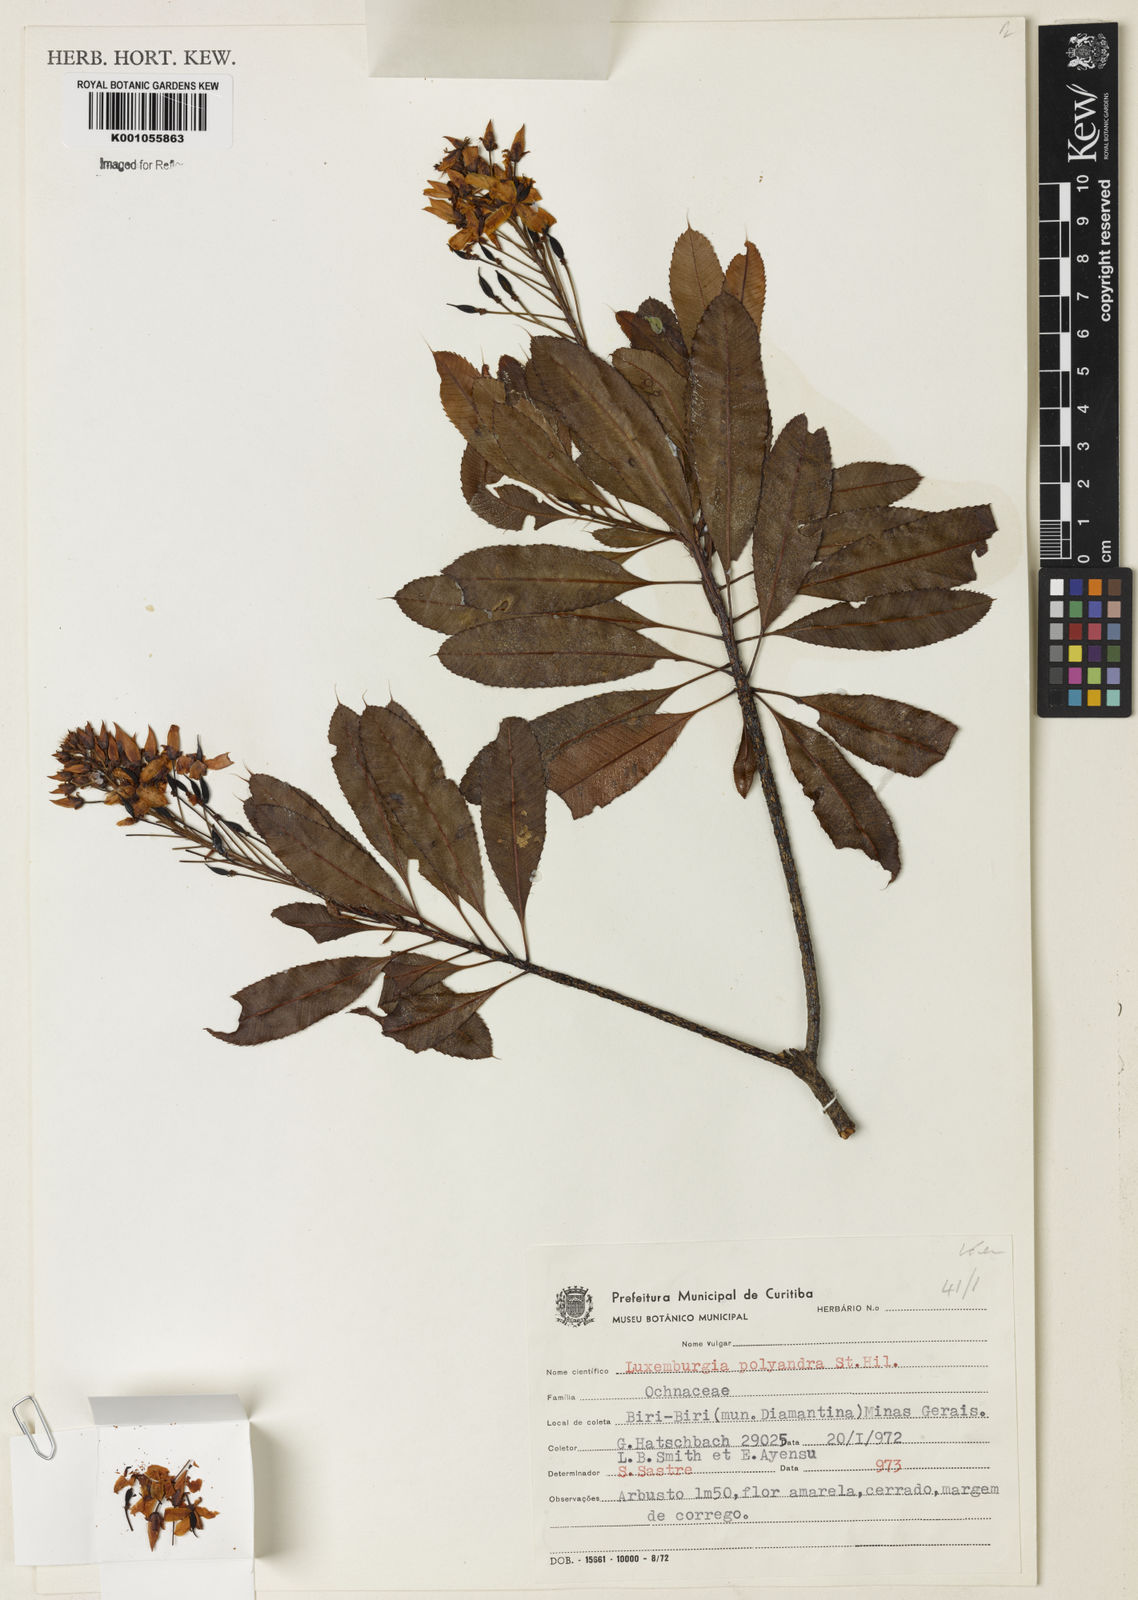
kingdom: Plantae
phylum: Tracheophyta
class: Magnoliopsida
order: Malpighiales
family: Ochnaceae
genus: Luxemburgia
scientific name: Luxemburgia polyandra
